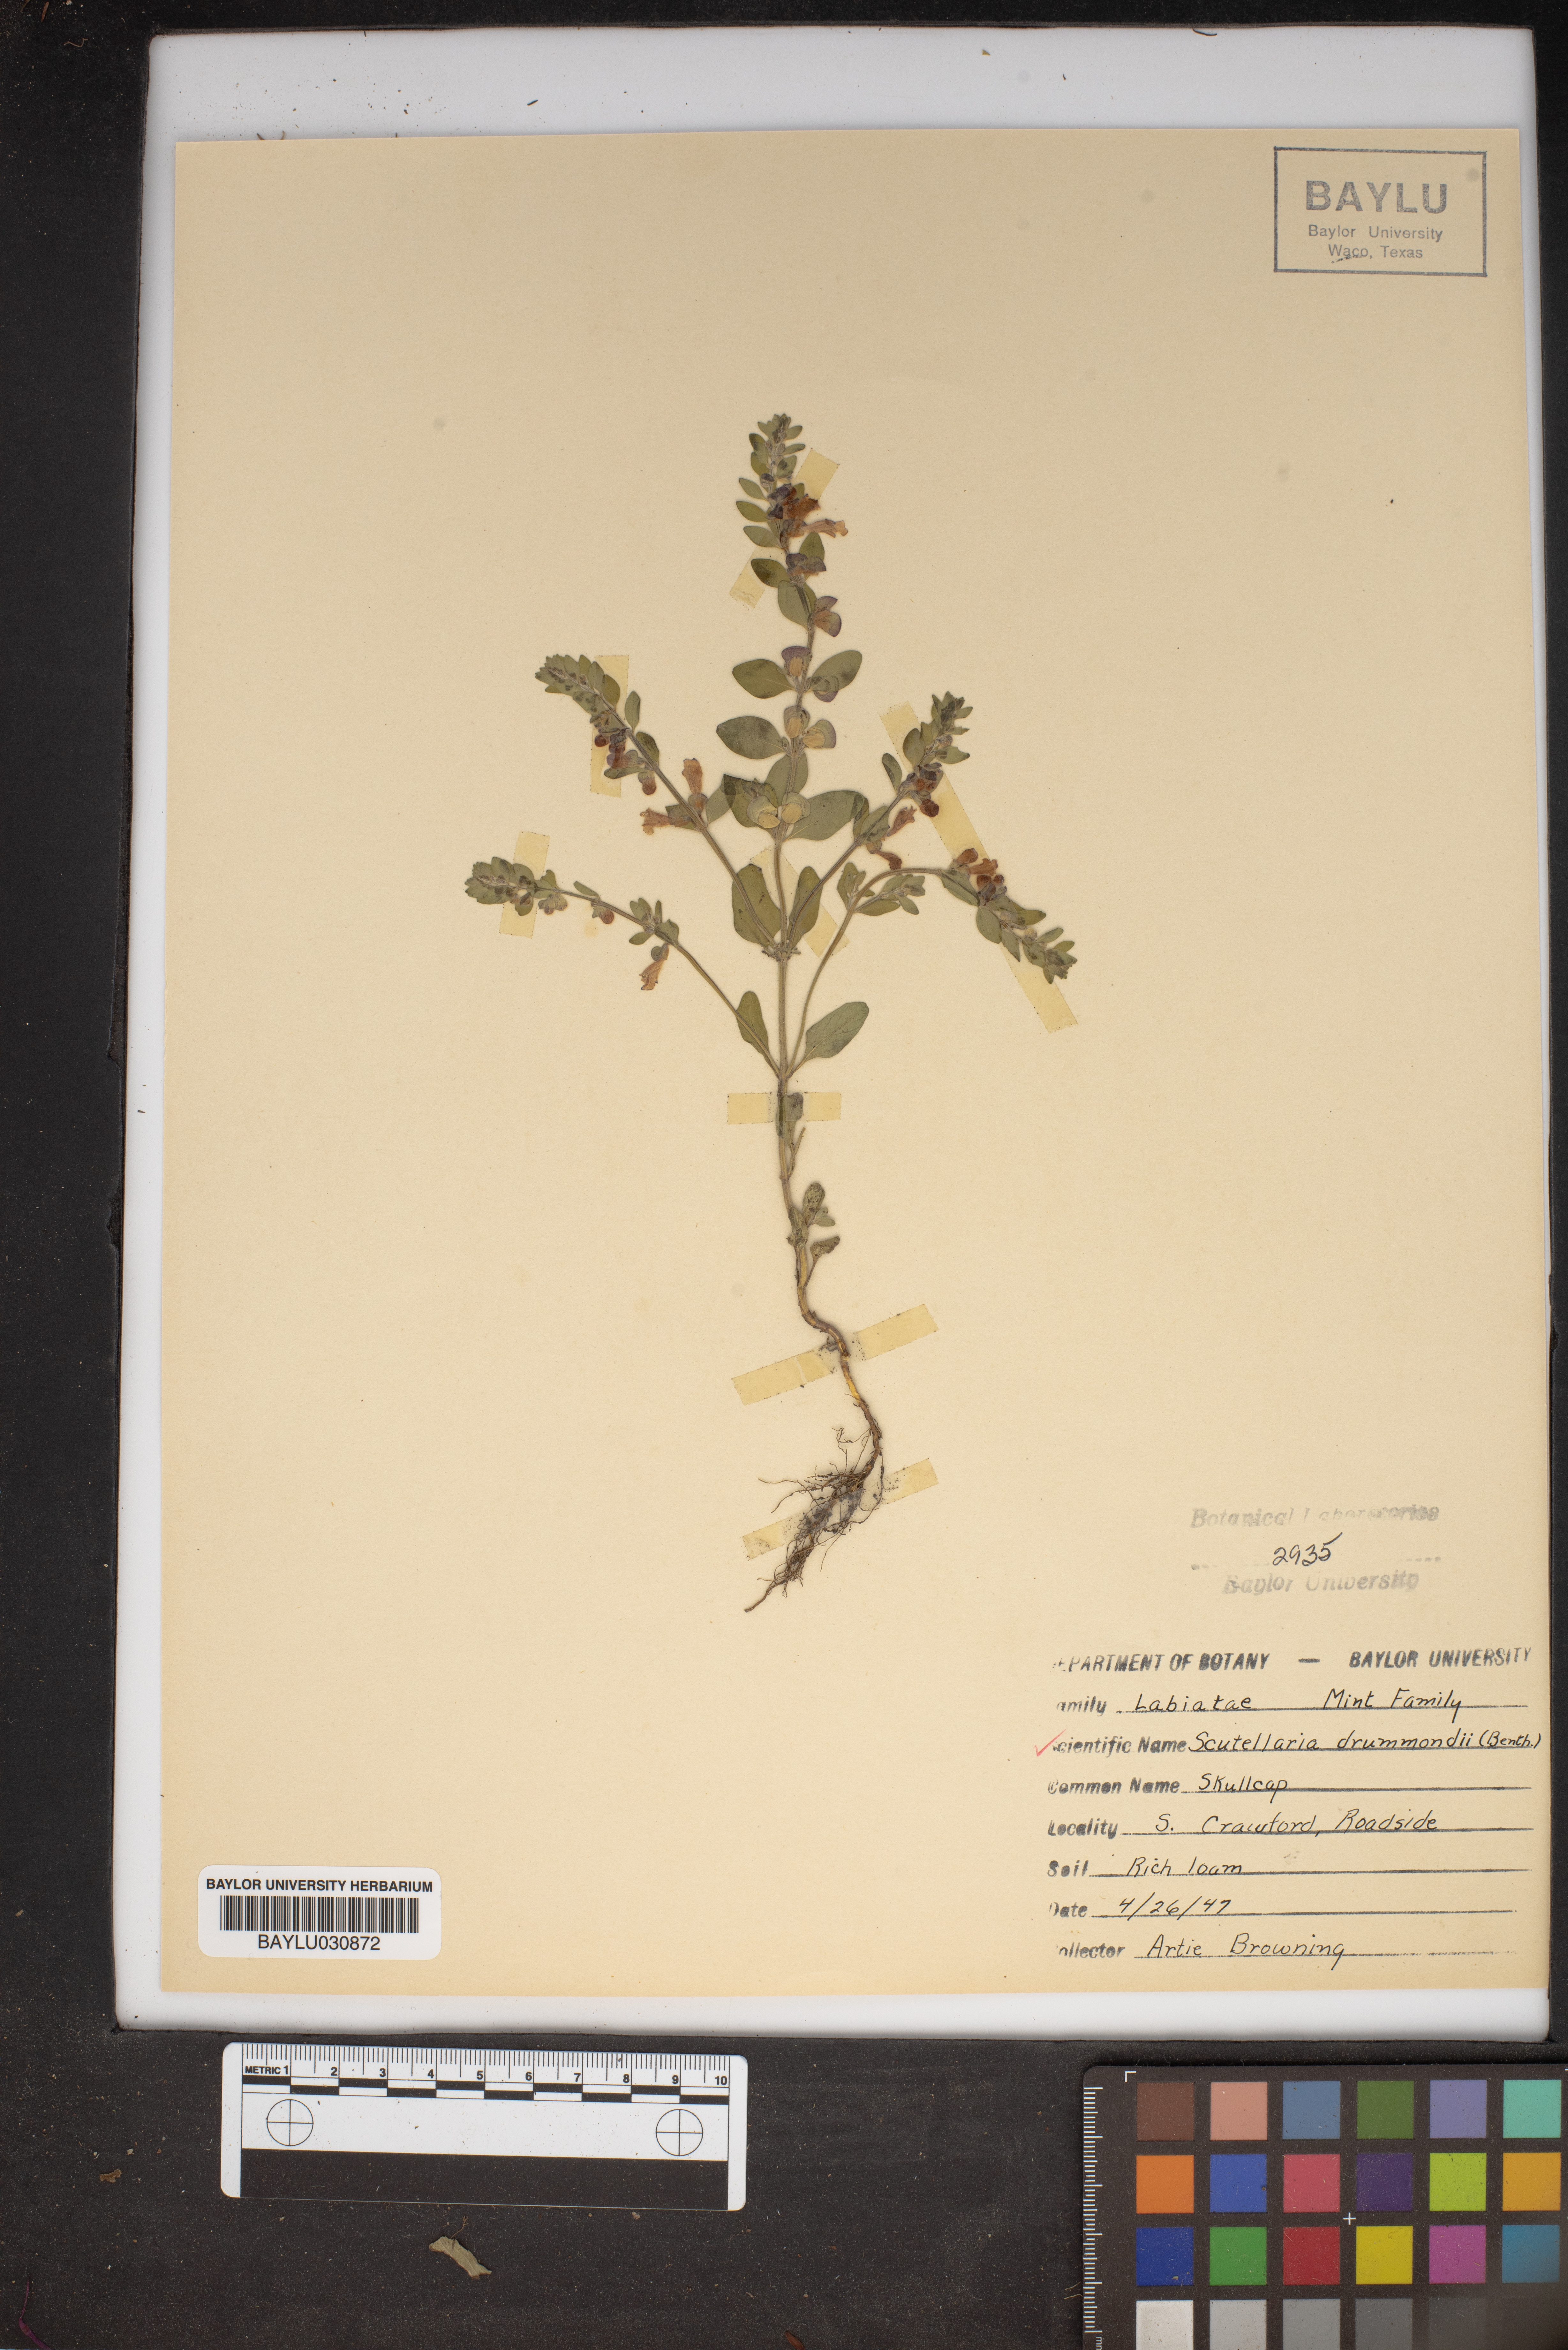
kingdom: Plantae
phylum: Tracheophyta
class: Magnoliopsida
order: Lamiales
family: Lamiaceae
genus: Scutellaria
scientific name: Scutellaria drummondii
